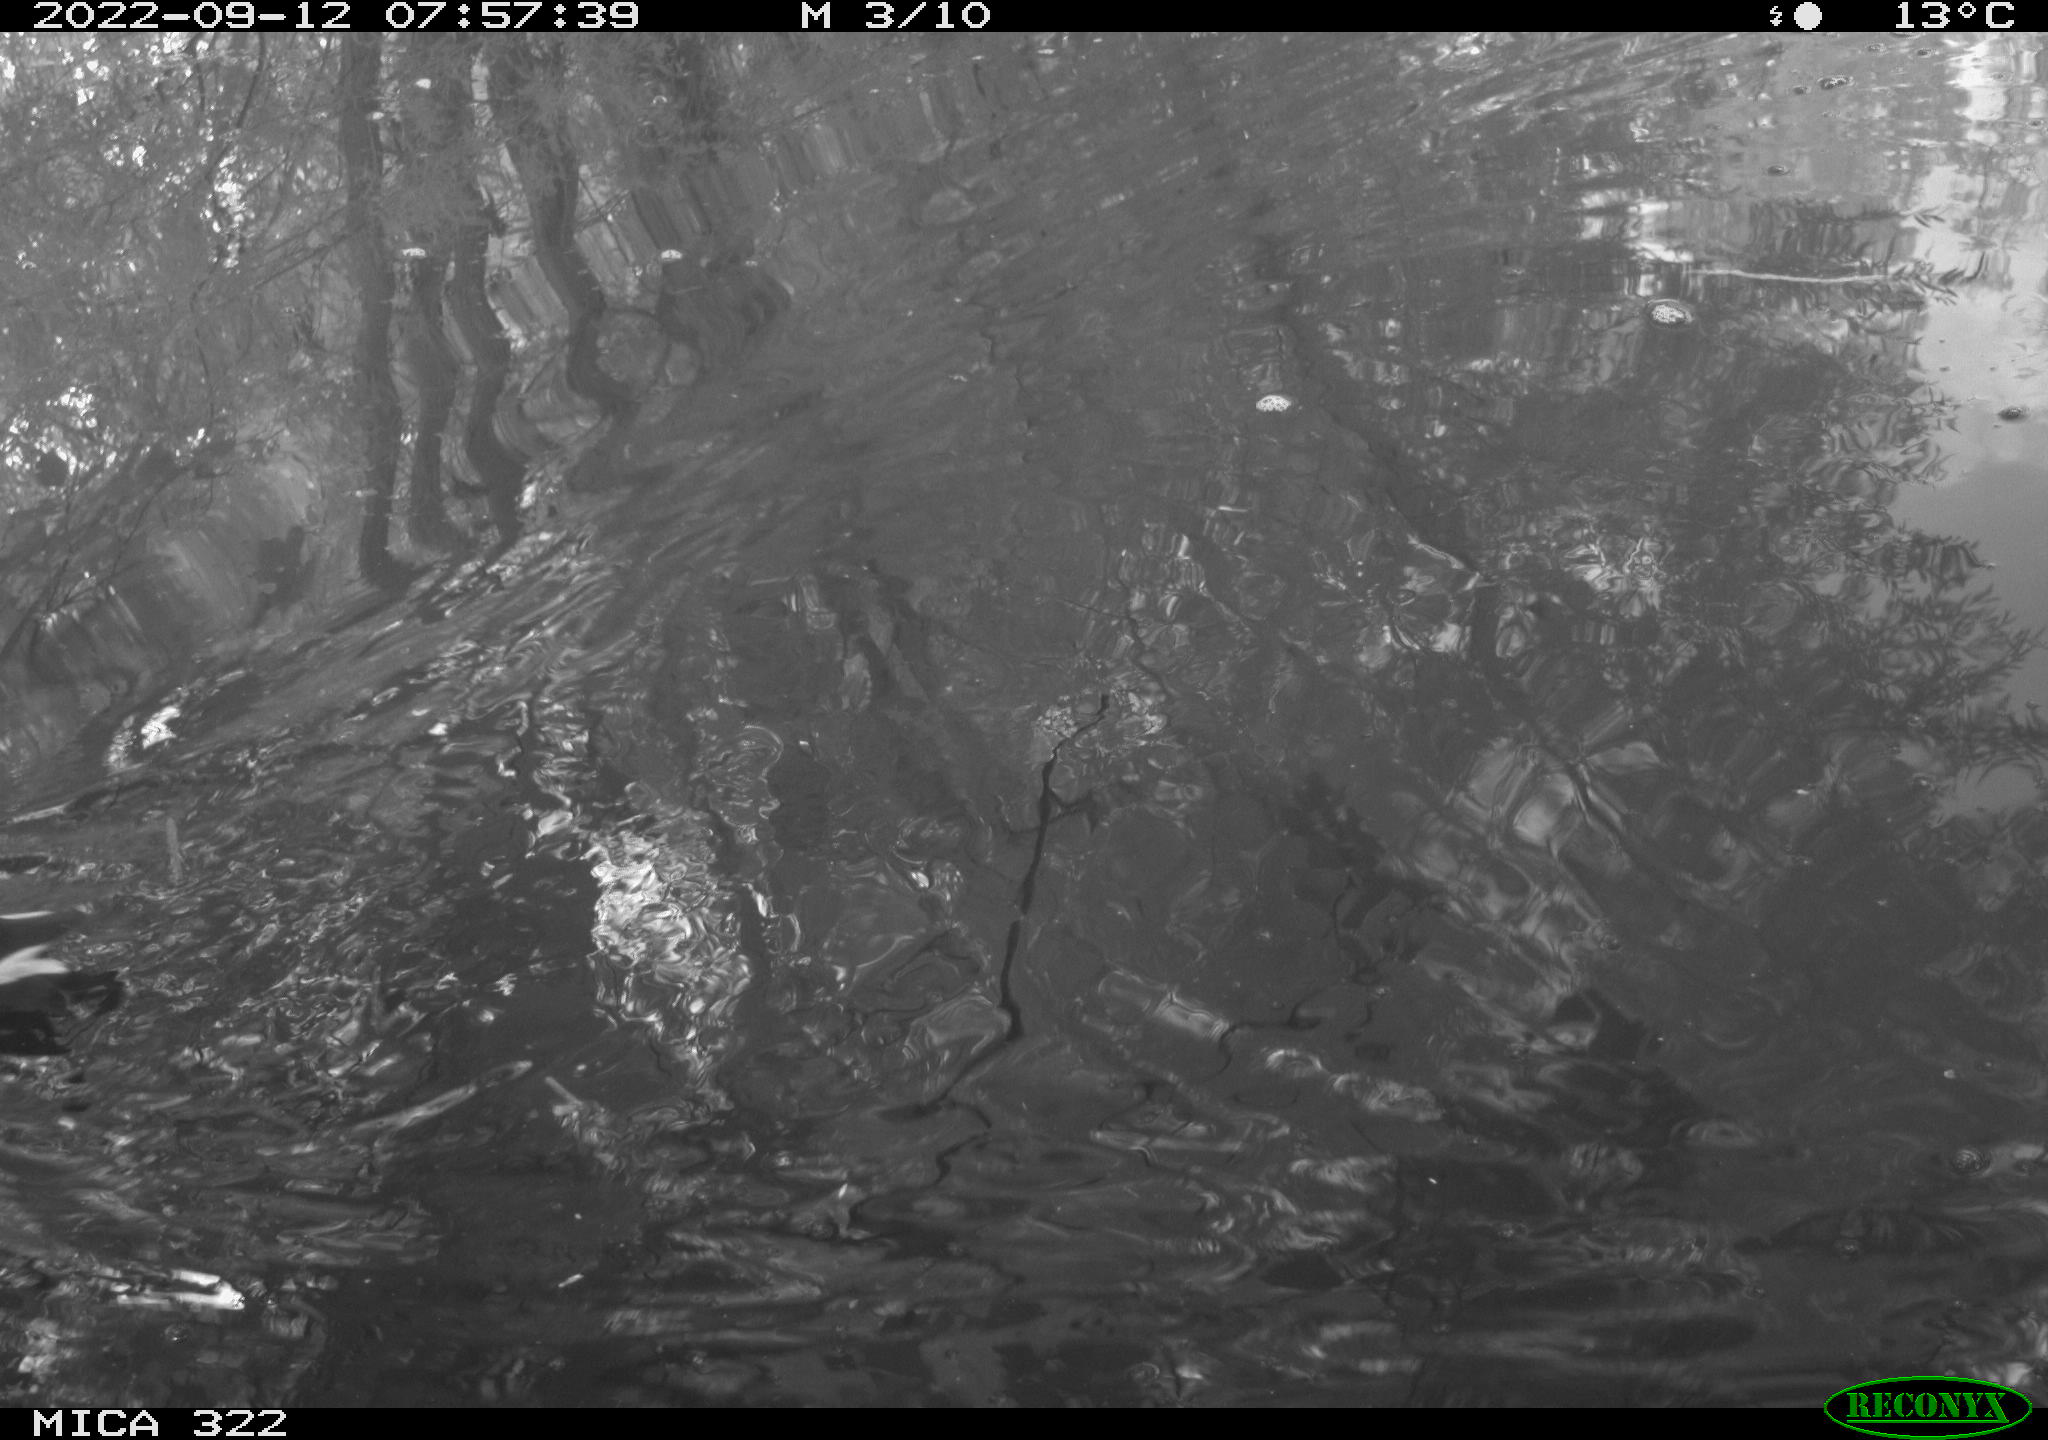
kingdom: Animalia
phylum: Chordata
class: Aves
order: Gruiformes
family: Rallidae
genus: Gallinula
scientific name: Gallinula chloropus
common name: Common moorhen
